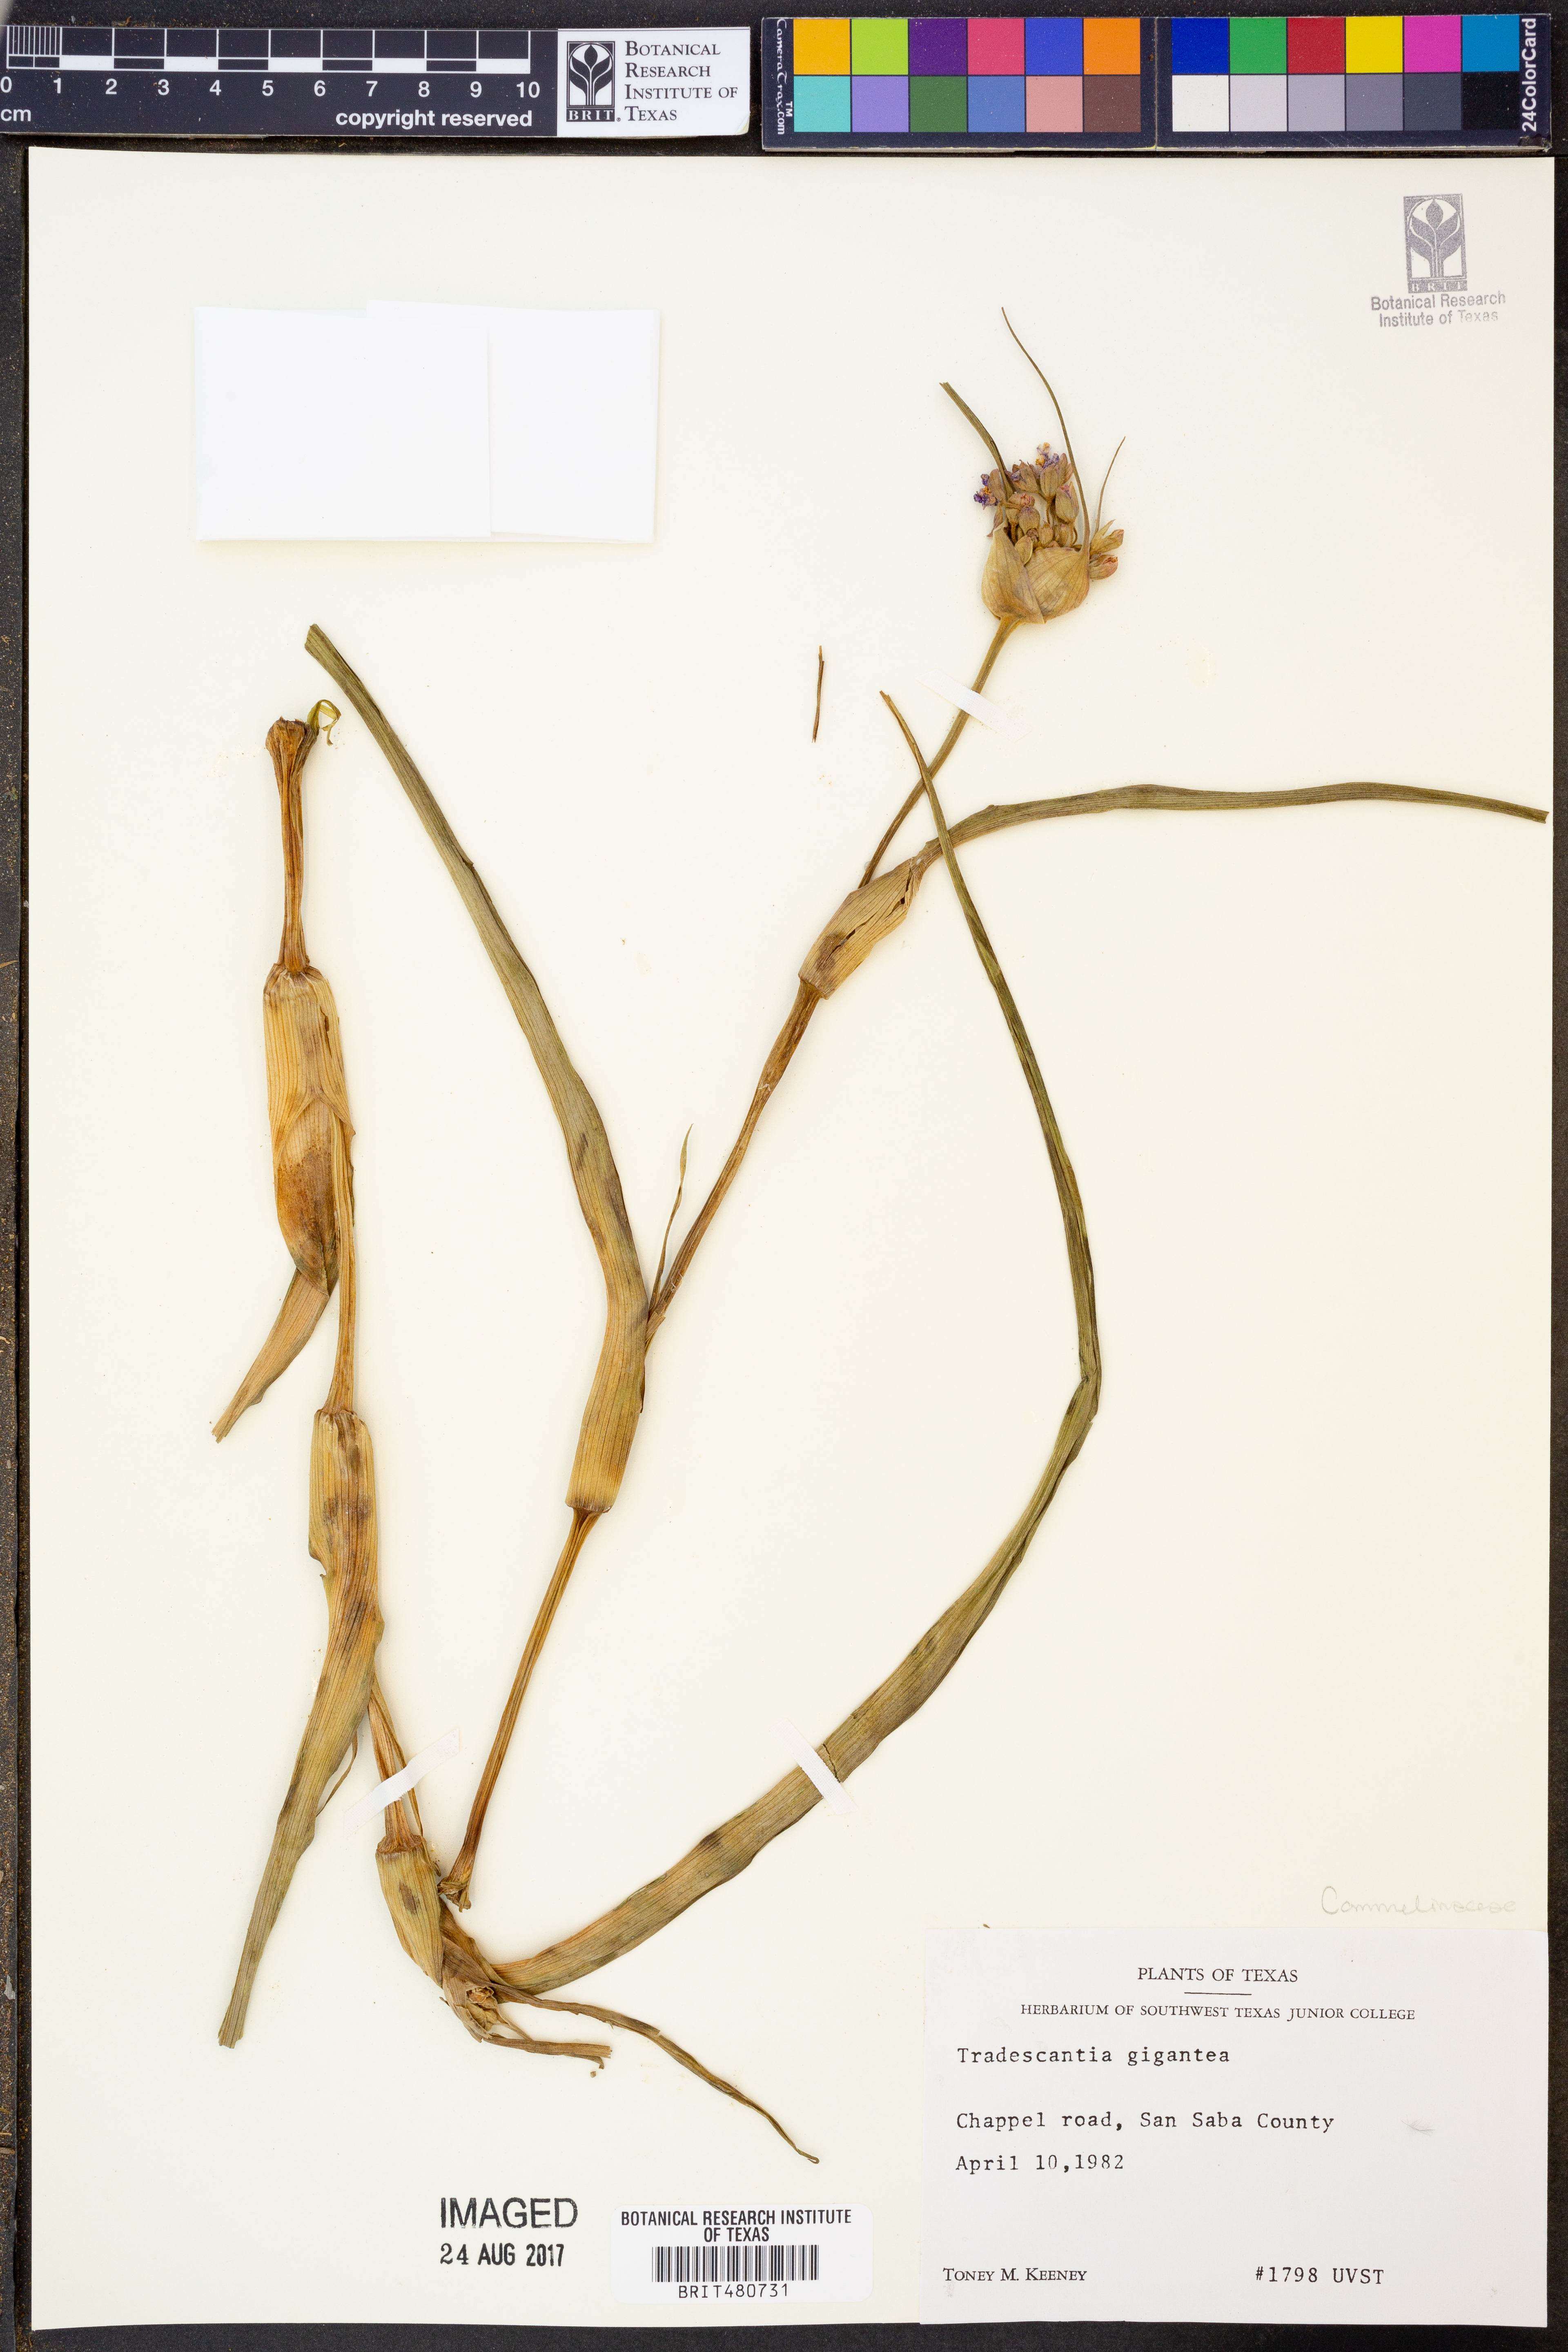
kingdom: Plantae
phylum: Tracheophyta
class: Liliopsida
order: Commelinales
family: Commelinaceae
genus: Tradescantia
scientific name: Tradescantia gigantea
